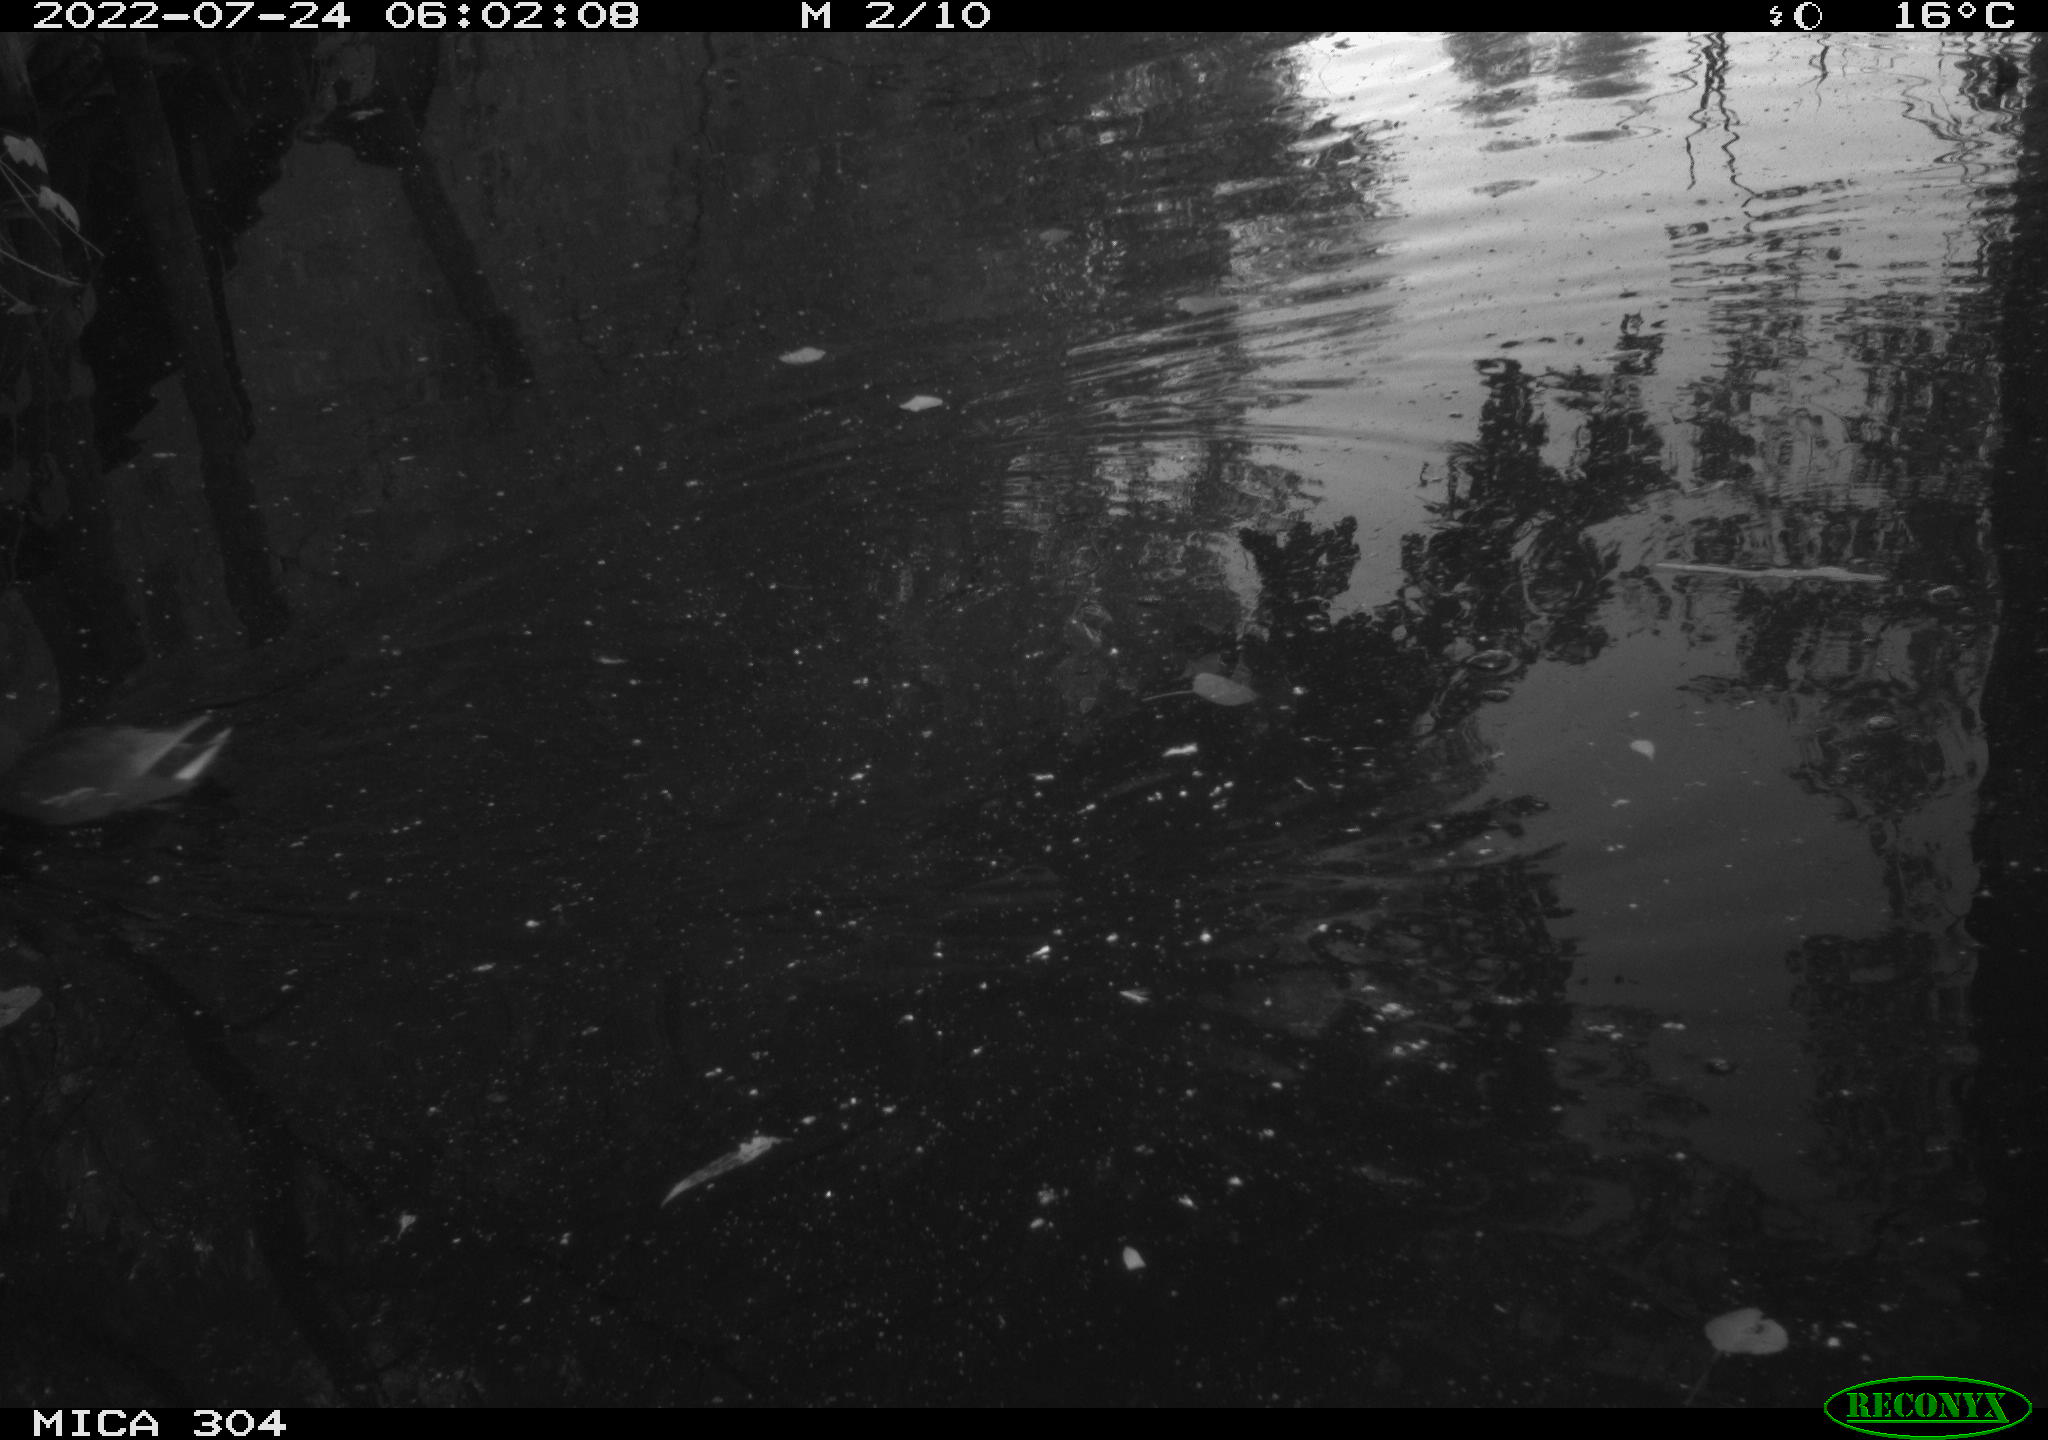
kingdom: Animalia
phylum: Chordata
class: Aves
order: Gruiformes
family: Rallidae
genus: Gallinula
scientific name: Gallinula chloropus
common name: Common moorhen
